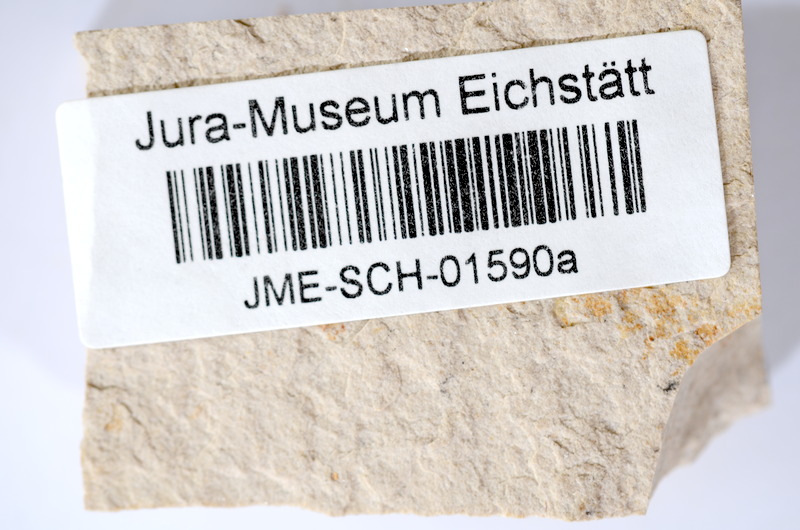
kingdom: Animalia
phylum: Chordata
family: Ascalaboidae
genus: Tharsis
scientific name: Tharsis dubius
